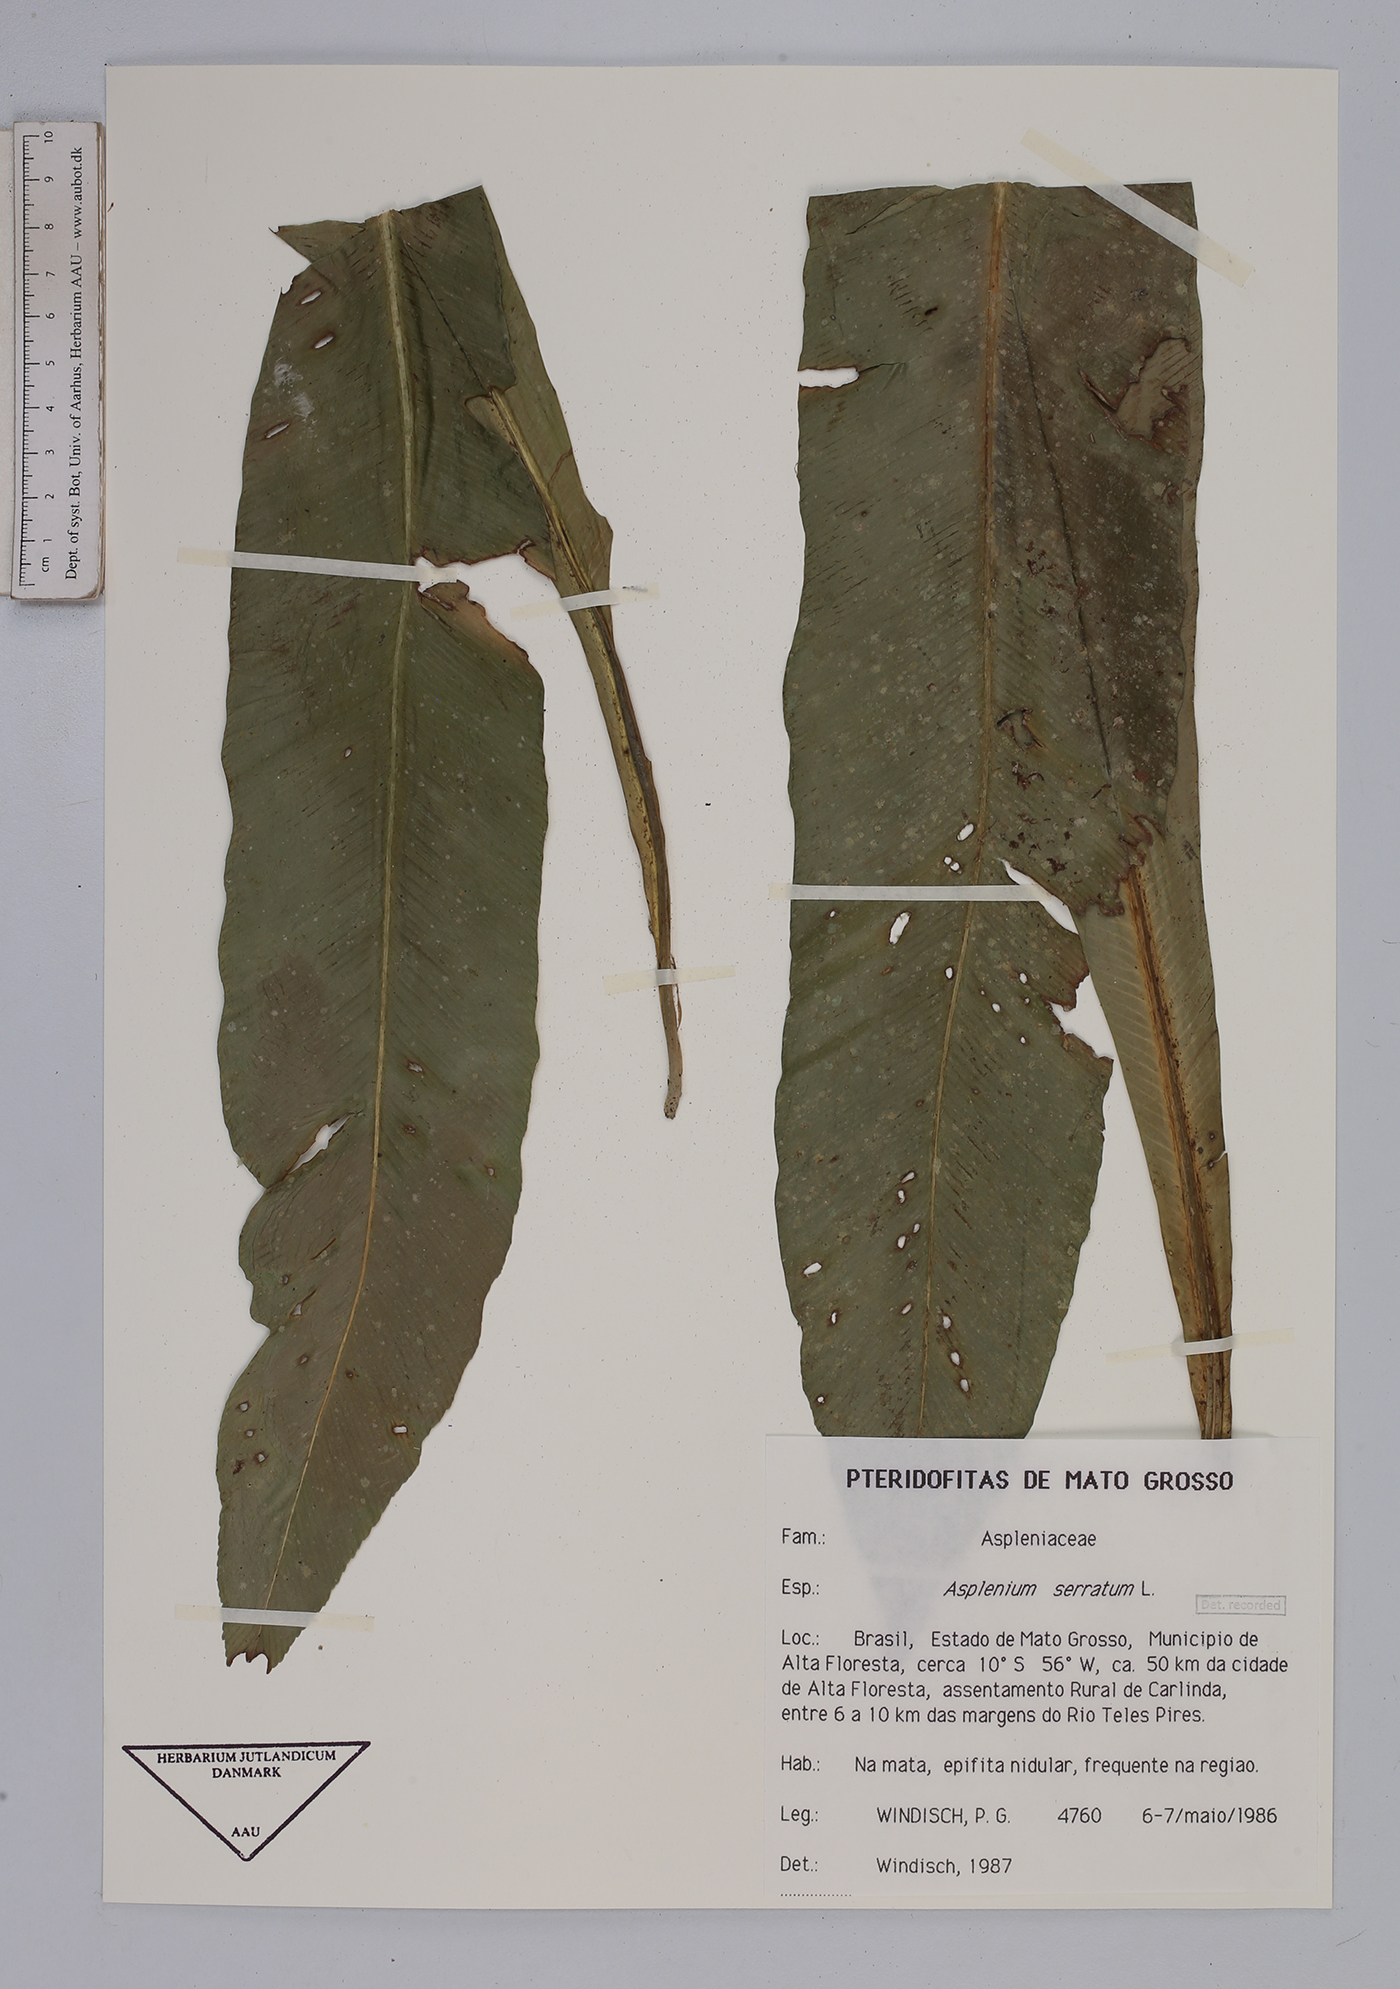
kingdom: Plantae
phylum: Tracheophyta
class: Polypodiopsida
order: Polypodiales
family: Aspleniaceae
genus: Asplenium
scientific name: Asplenium serratum
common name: Wild birdnest fern
